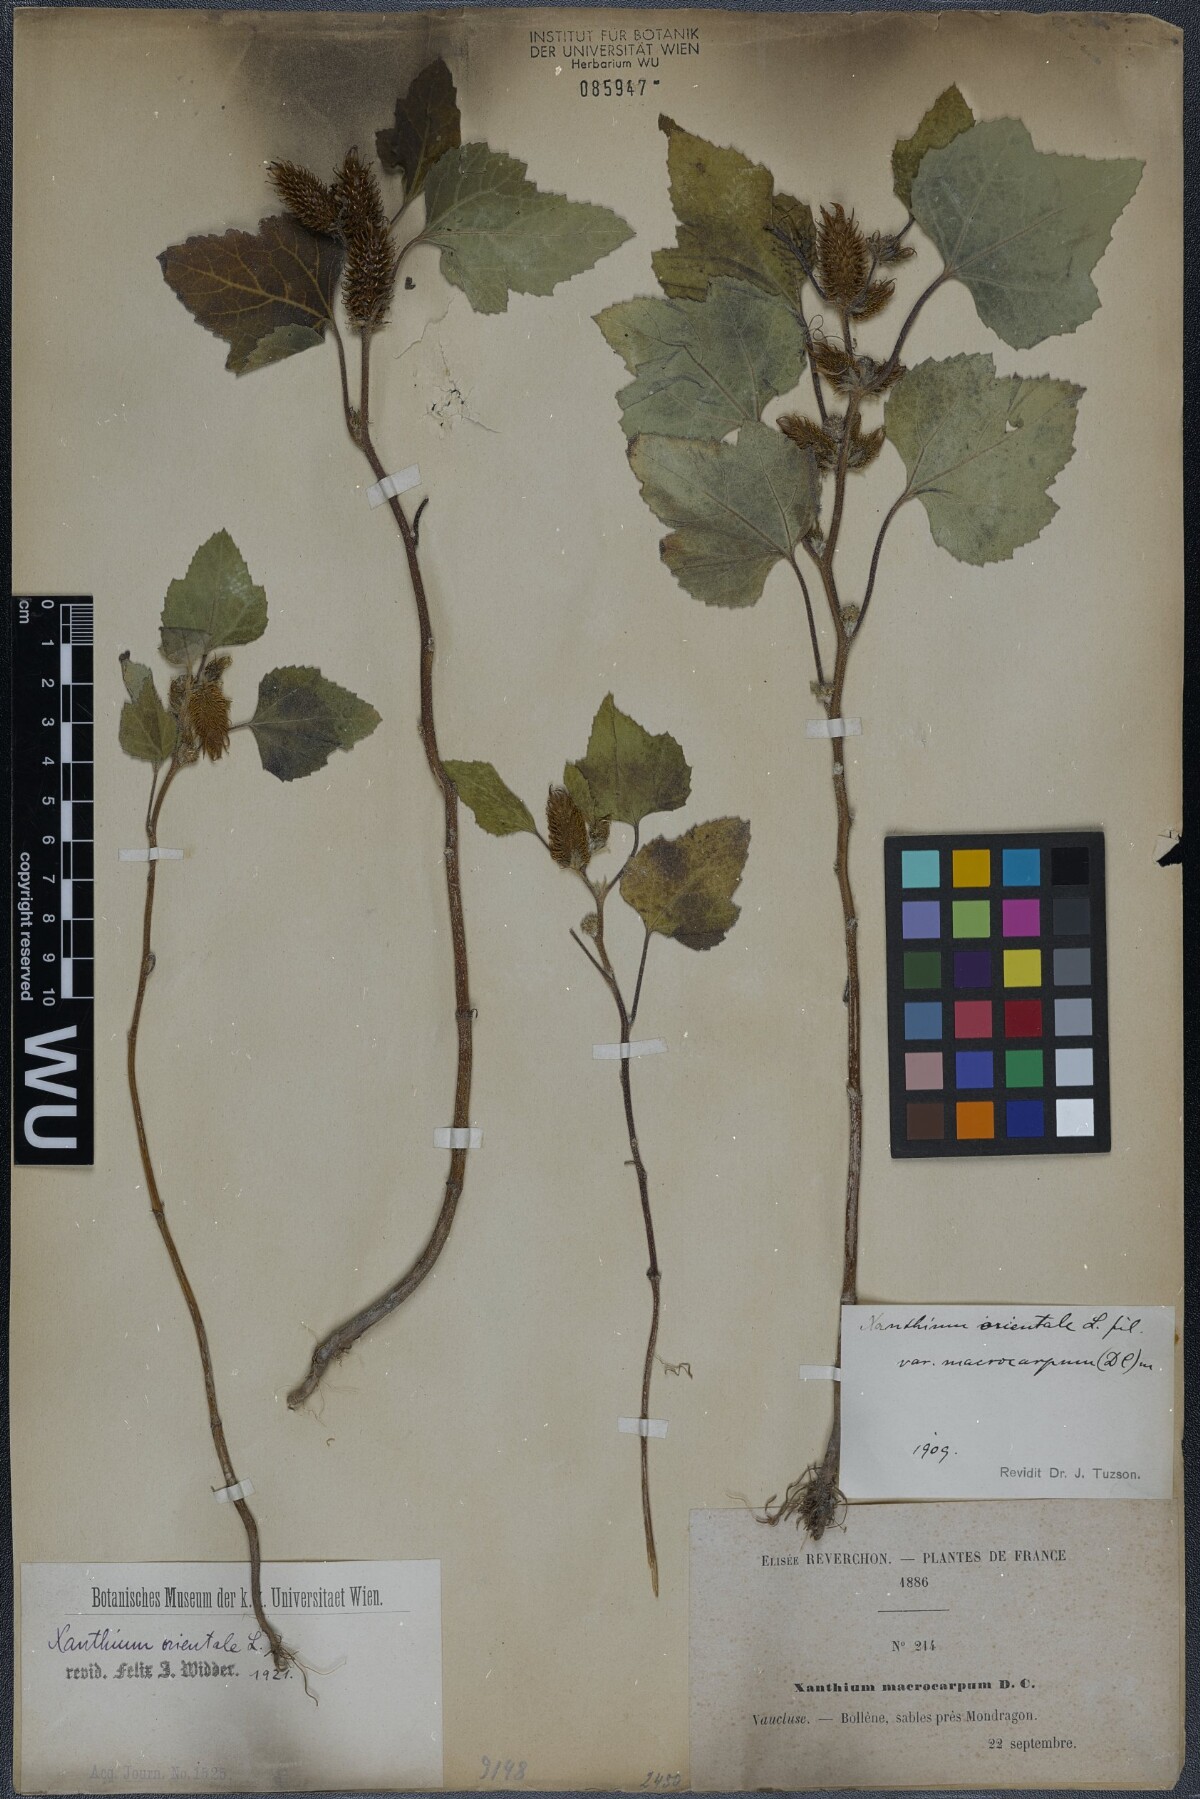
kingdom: Plantae
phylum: Tracheophyta
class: Magnoliopsida
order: Asterales
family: Asteraceae
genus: Xanthium
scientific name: Xanthium orientale
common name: Californian burr
